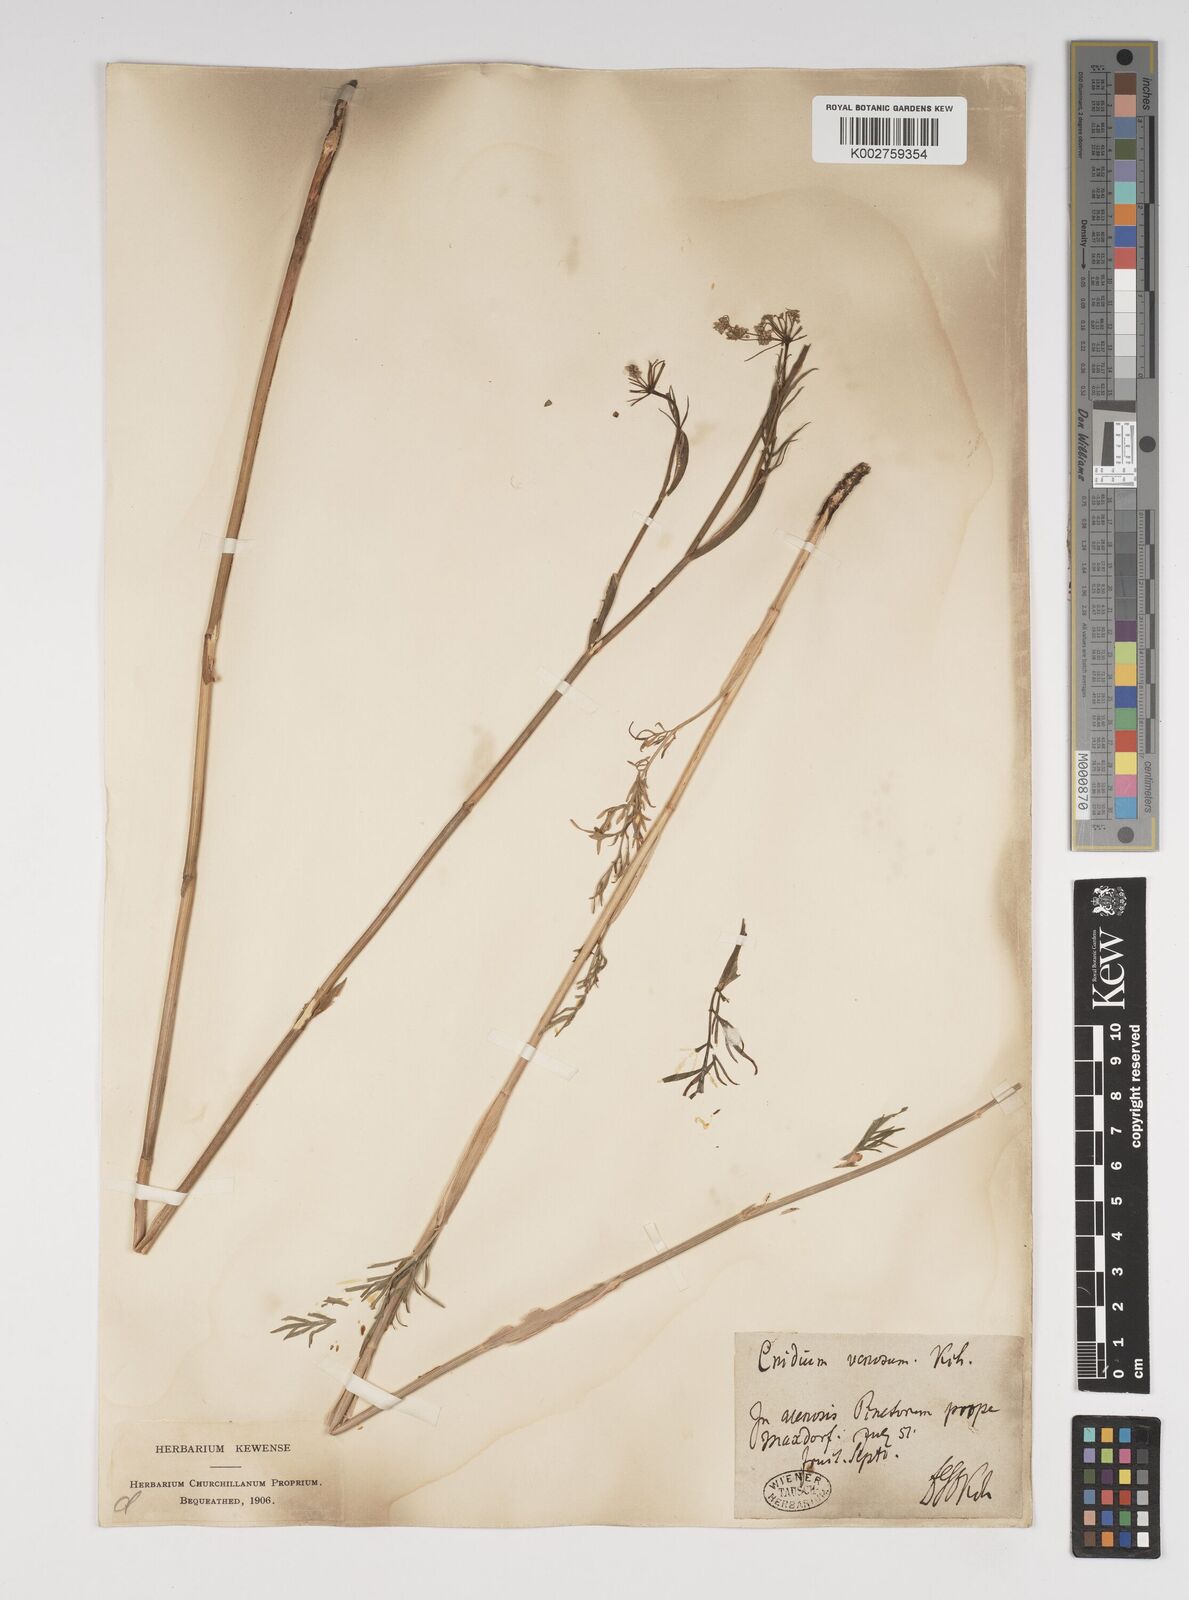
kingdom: Plantae
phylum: Tracheophyta
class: Magnoliopsida
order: Apiales
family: Apiaceae
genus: Kadenia
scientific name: Kadenia dubia
